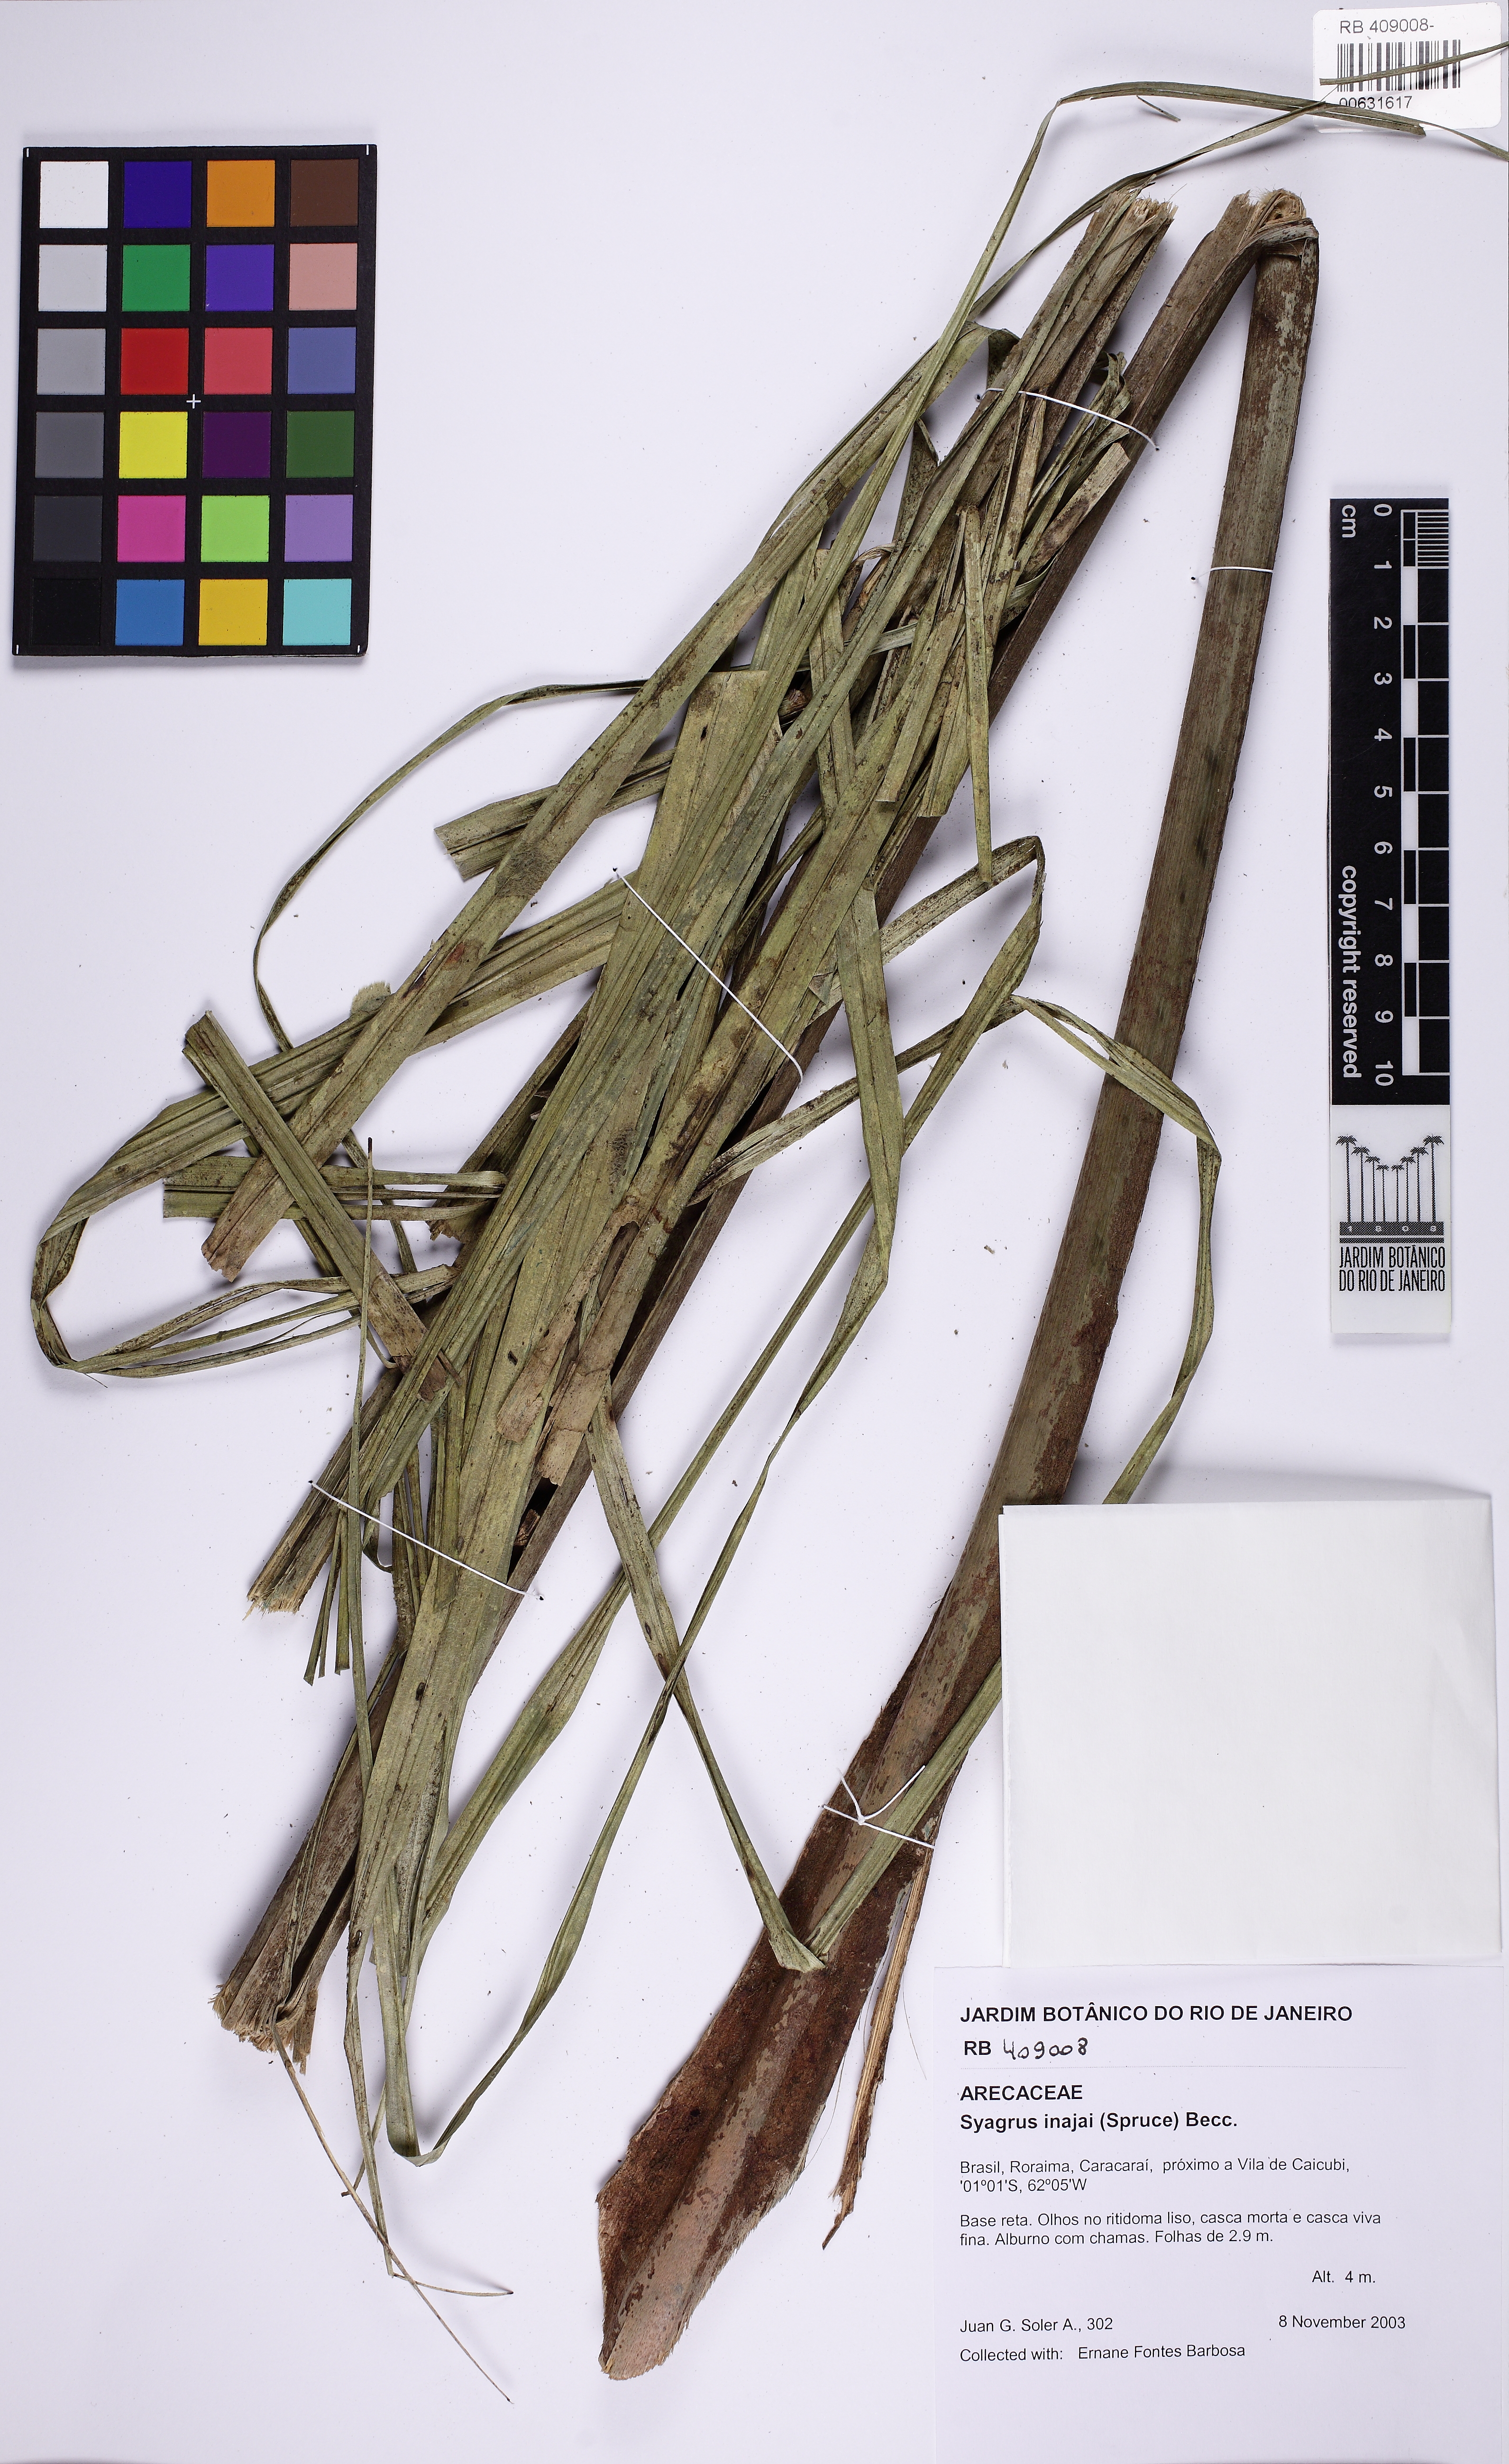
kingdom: Plantae
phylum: Tracheophyta
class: Liliopsida
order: Arecales
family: Arecaceae
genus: Syagrus
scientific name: Syagrus inajai
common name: Pupunha palm
